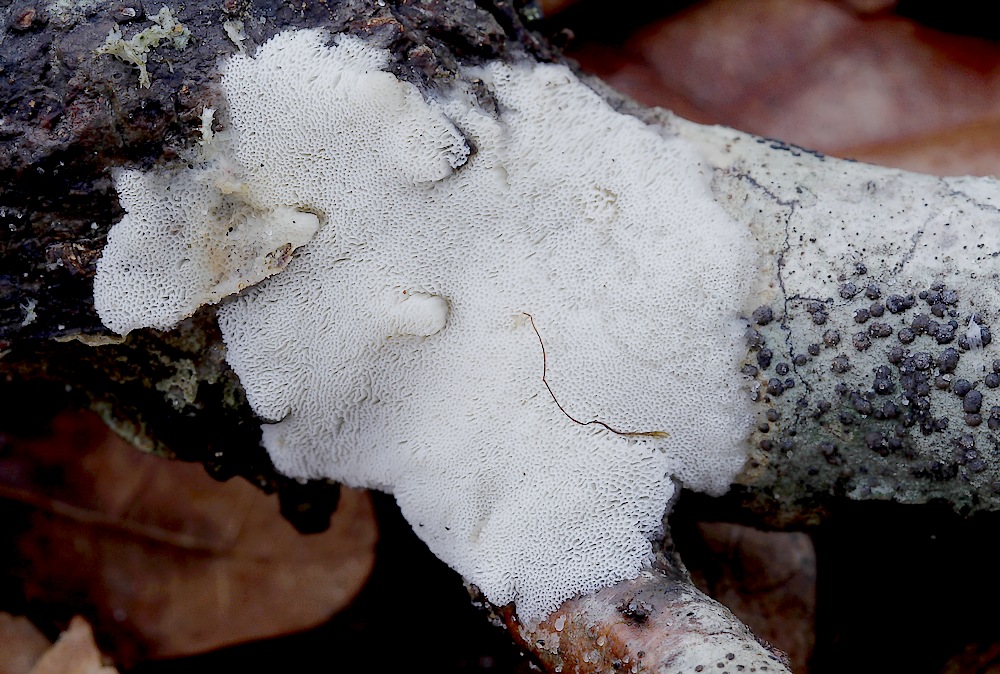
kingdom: Fungi
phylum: Basidiomycota
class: Agaricomycetes
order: Polyporales
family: Steccherinaceae
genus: Antrodiella
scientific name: Antrodiella romellii
